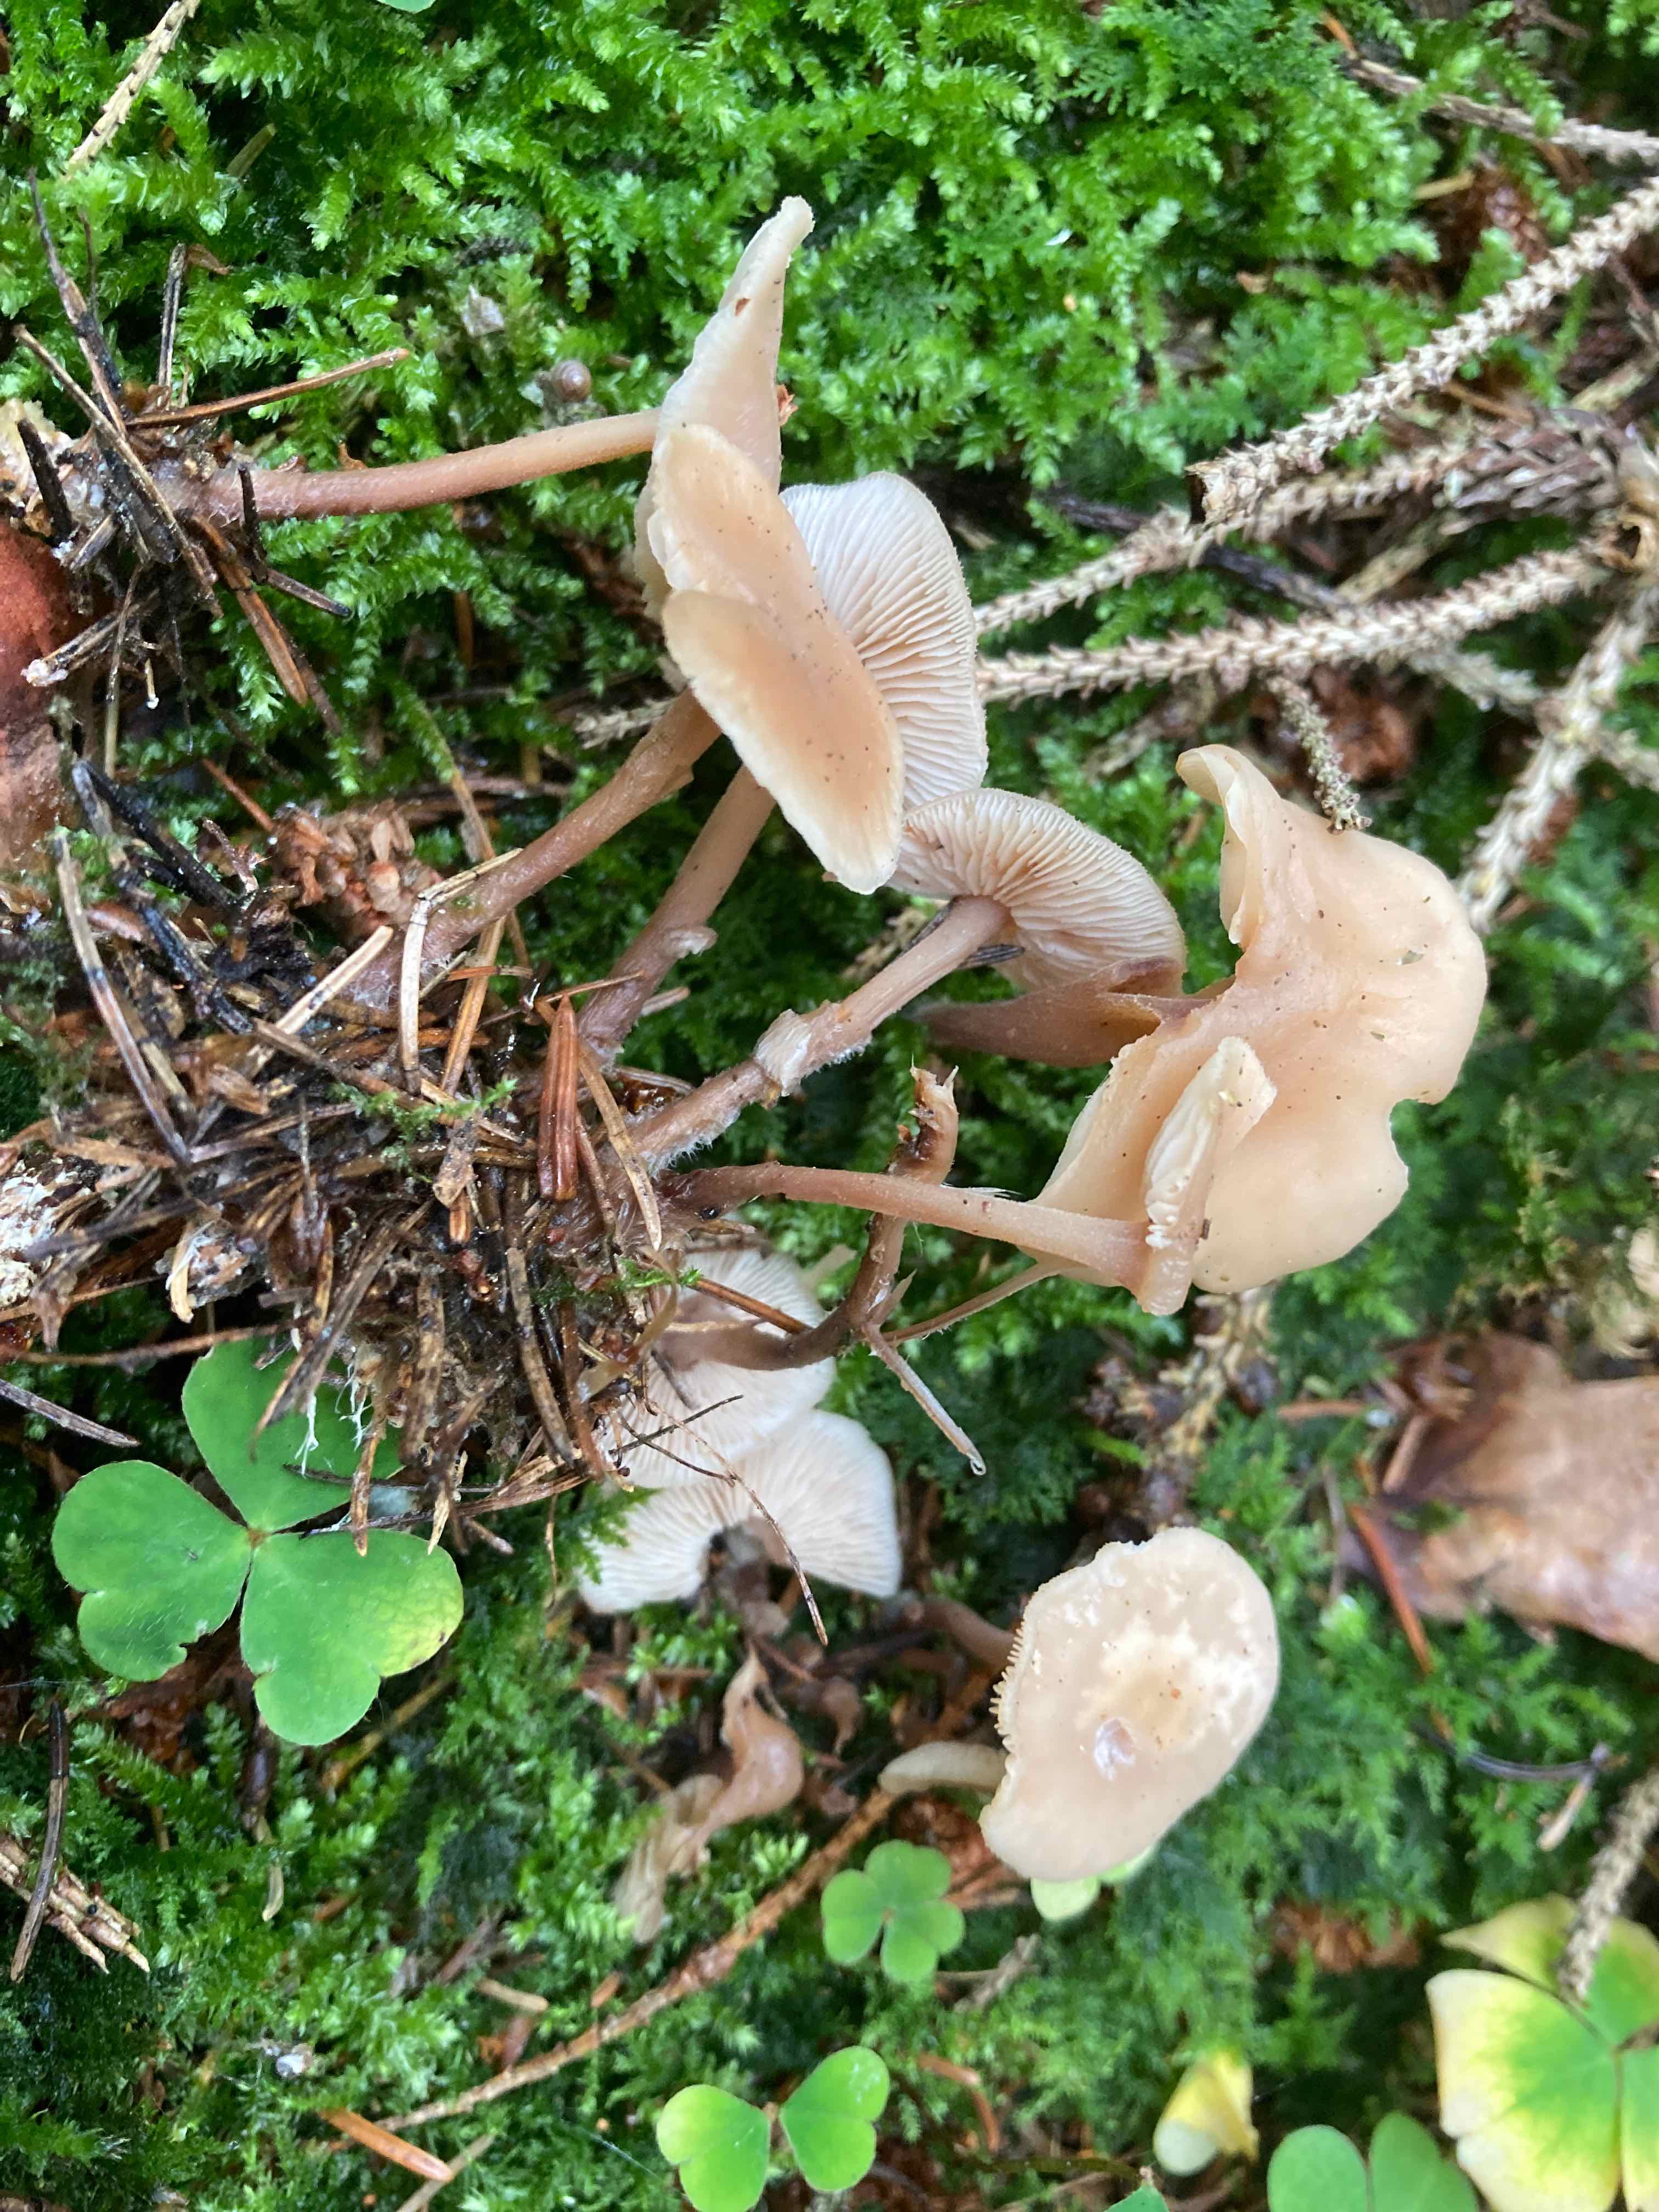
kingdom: Fungi
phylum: Basidiomycota
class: Agaricomycetes
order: Agaricales
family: Omphalotaceae
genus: Collybiopsis
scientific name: Collybiopsis confluens
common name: knippe-fladhat
